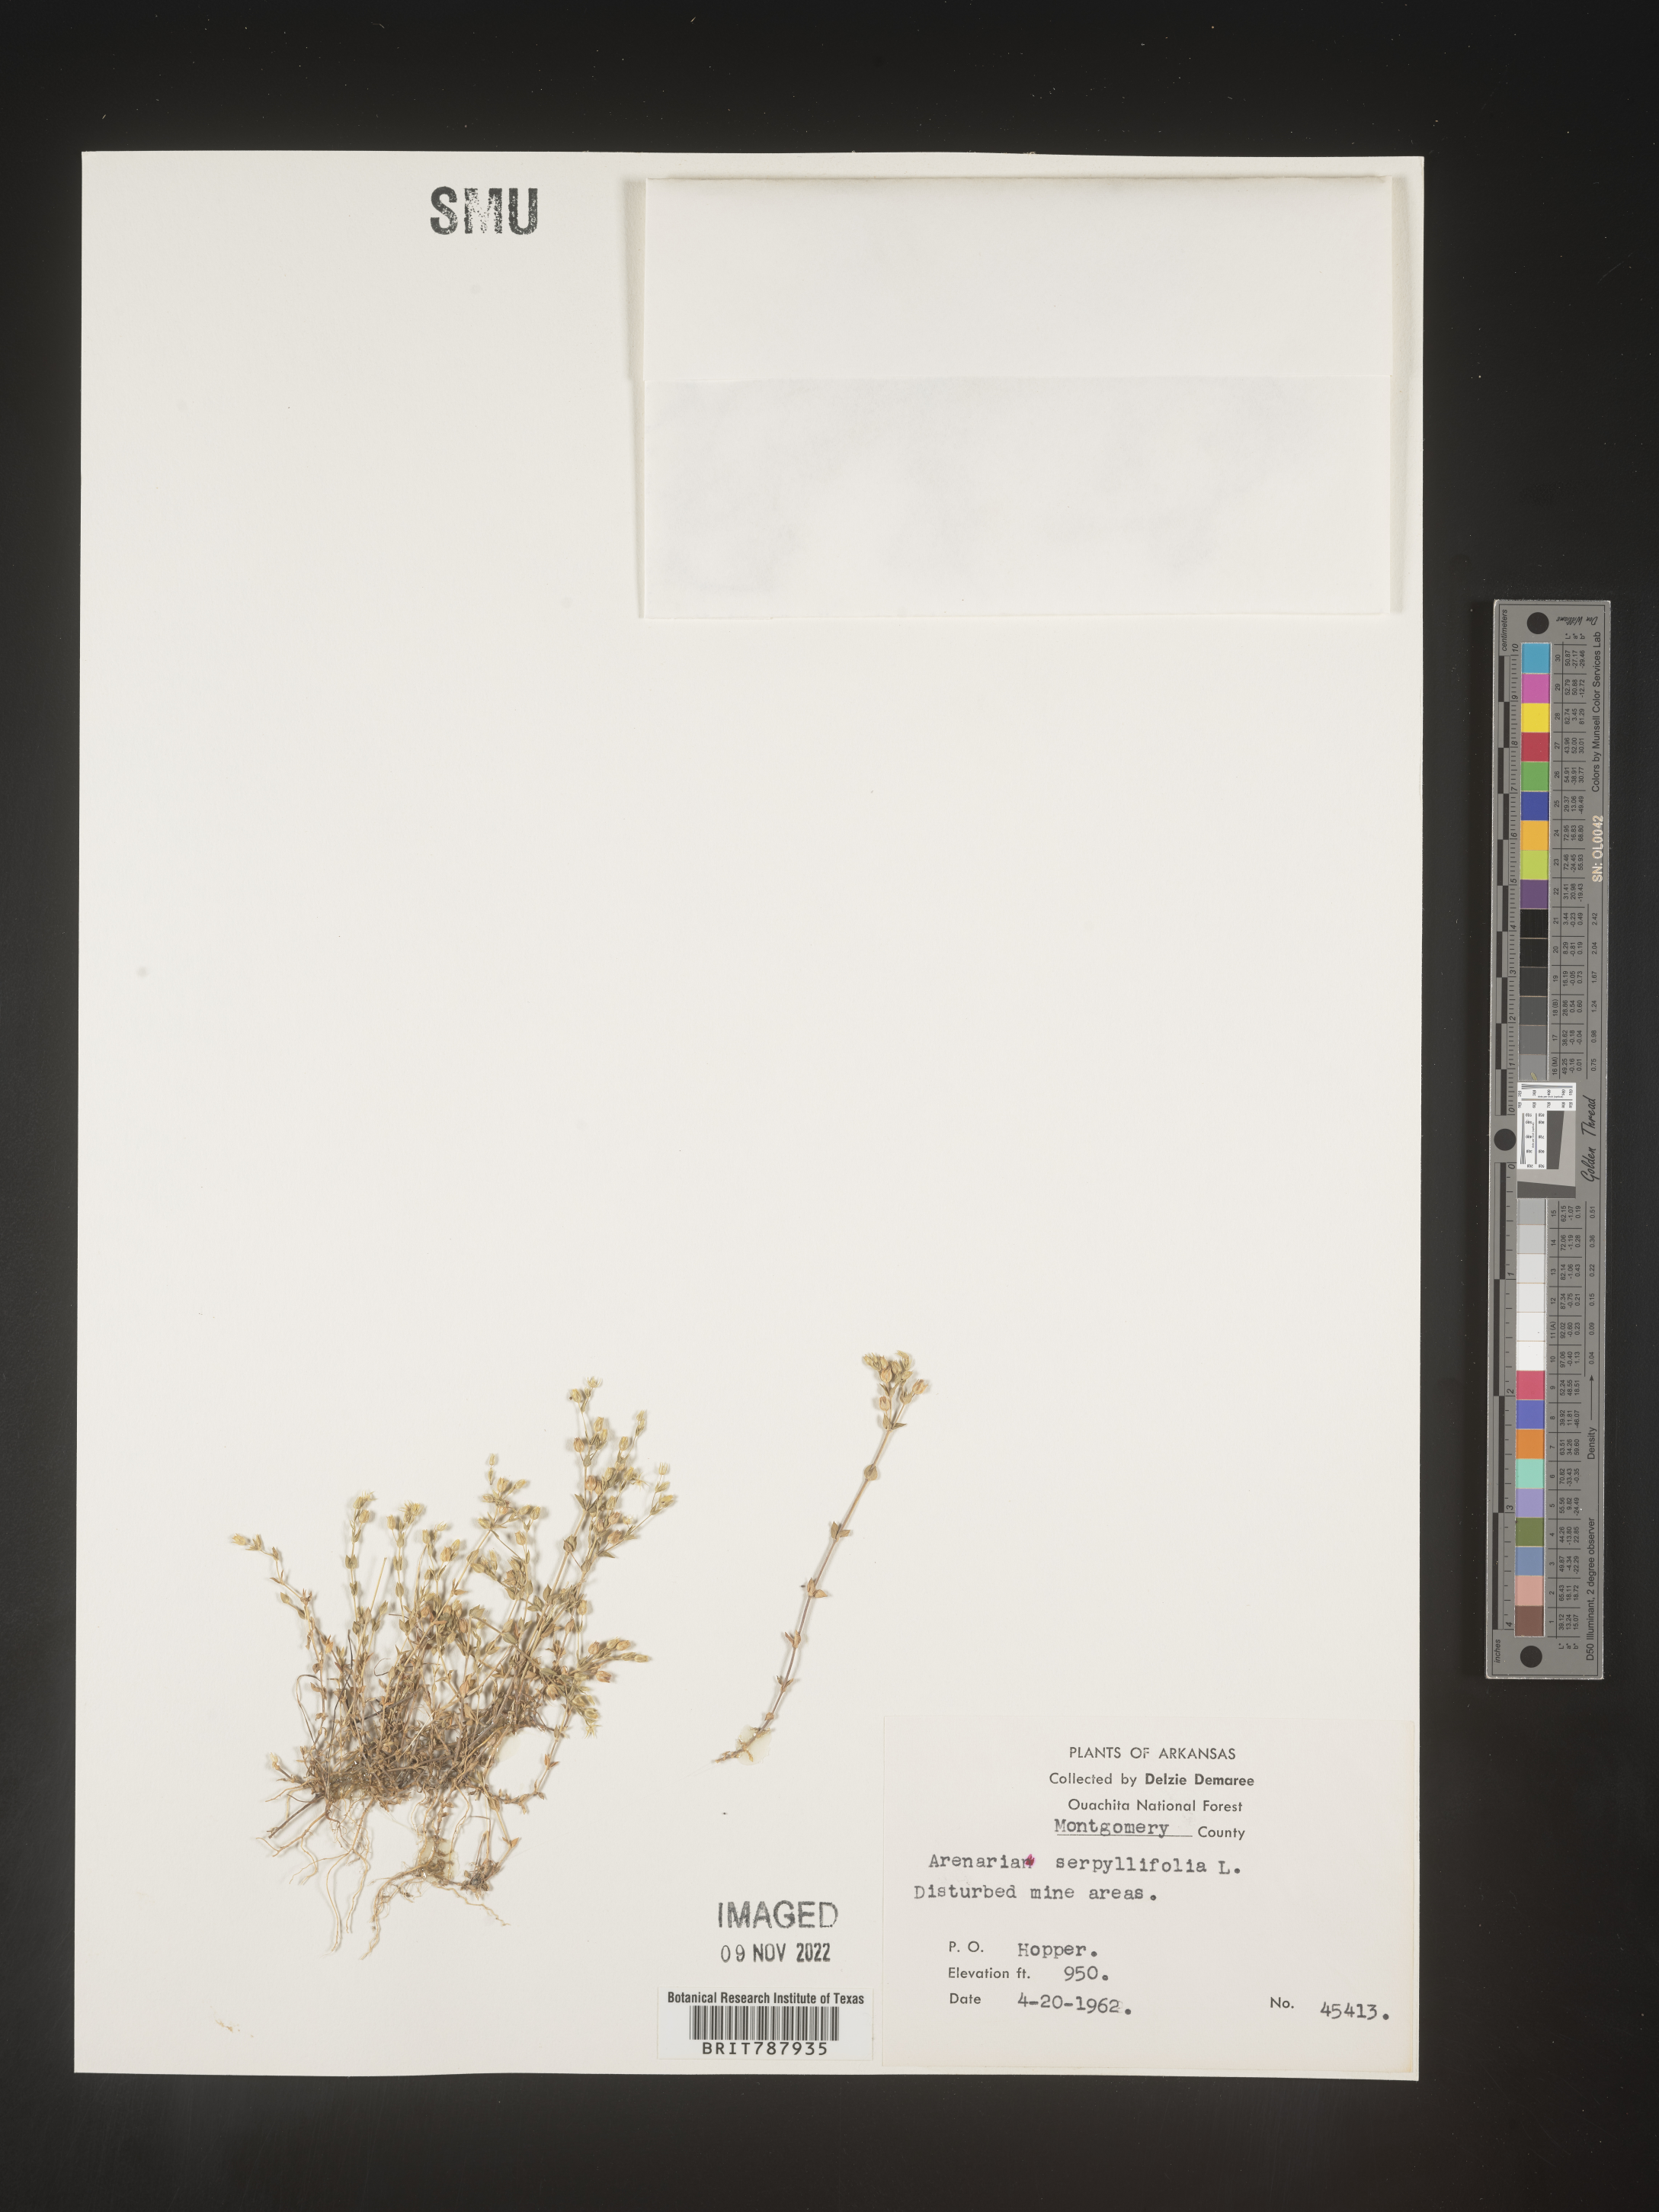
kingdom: Plantae
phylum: Tracheophyta
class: Magnoliopsida
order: Caryophyllales
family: Caryophyllaceae
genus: Arenaria
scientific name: Arenaria serpyllifolia
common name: Thyme-leaved sandwort
